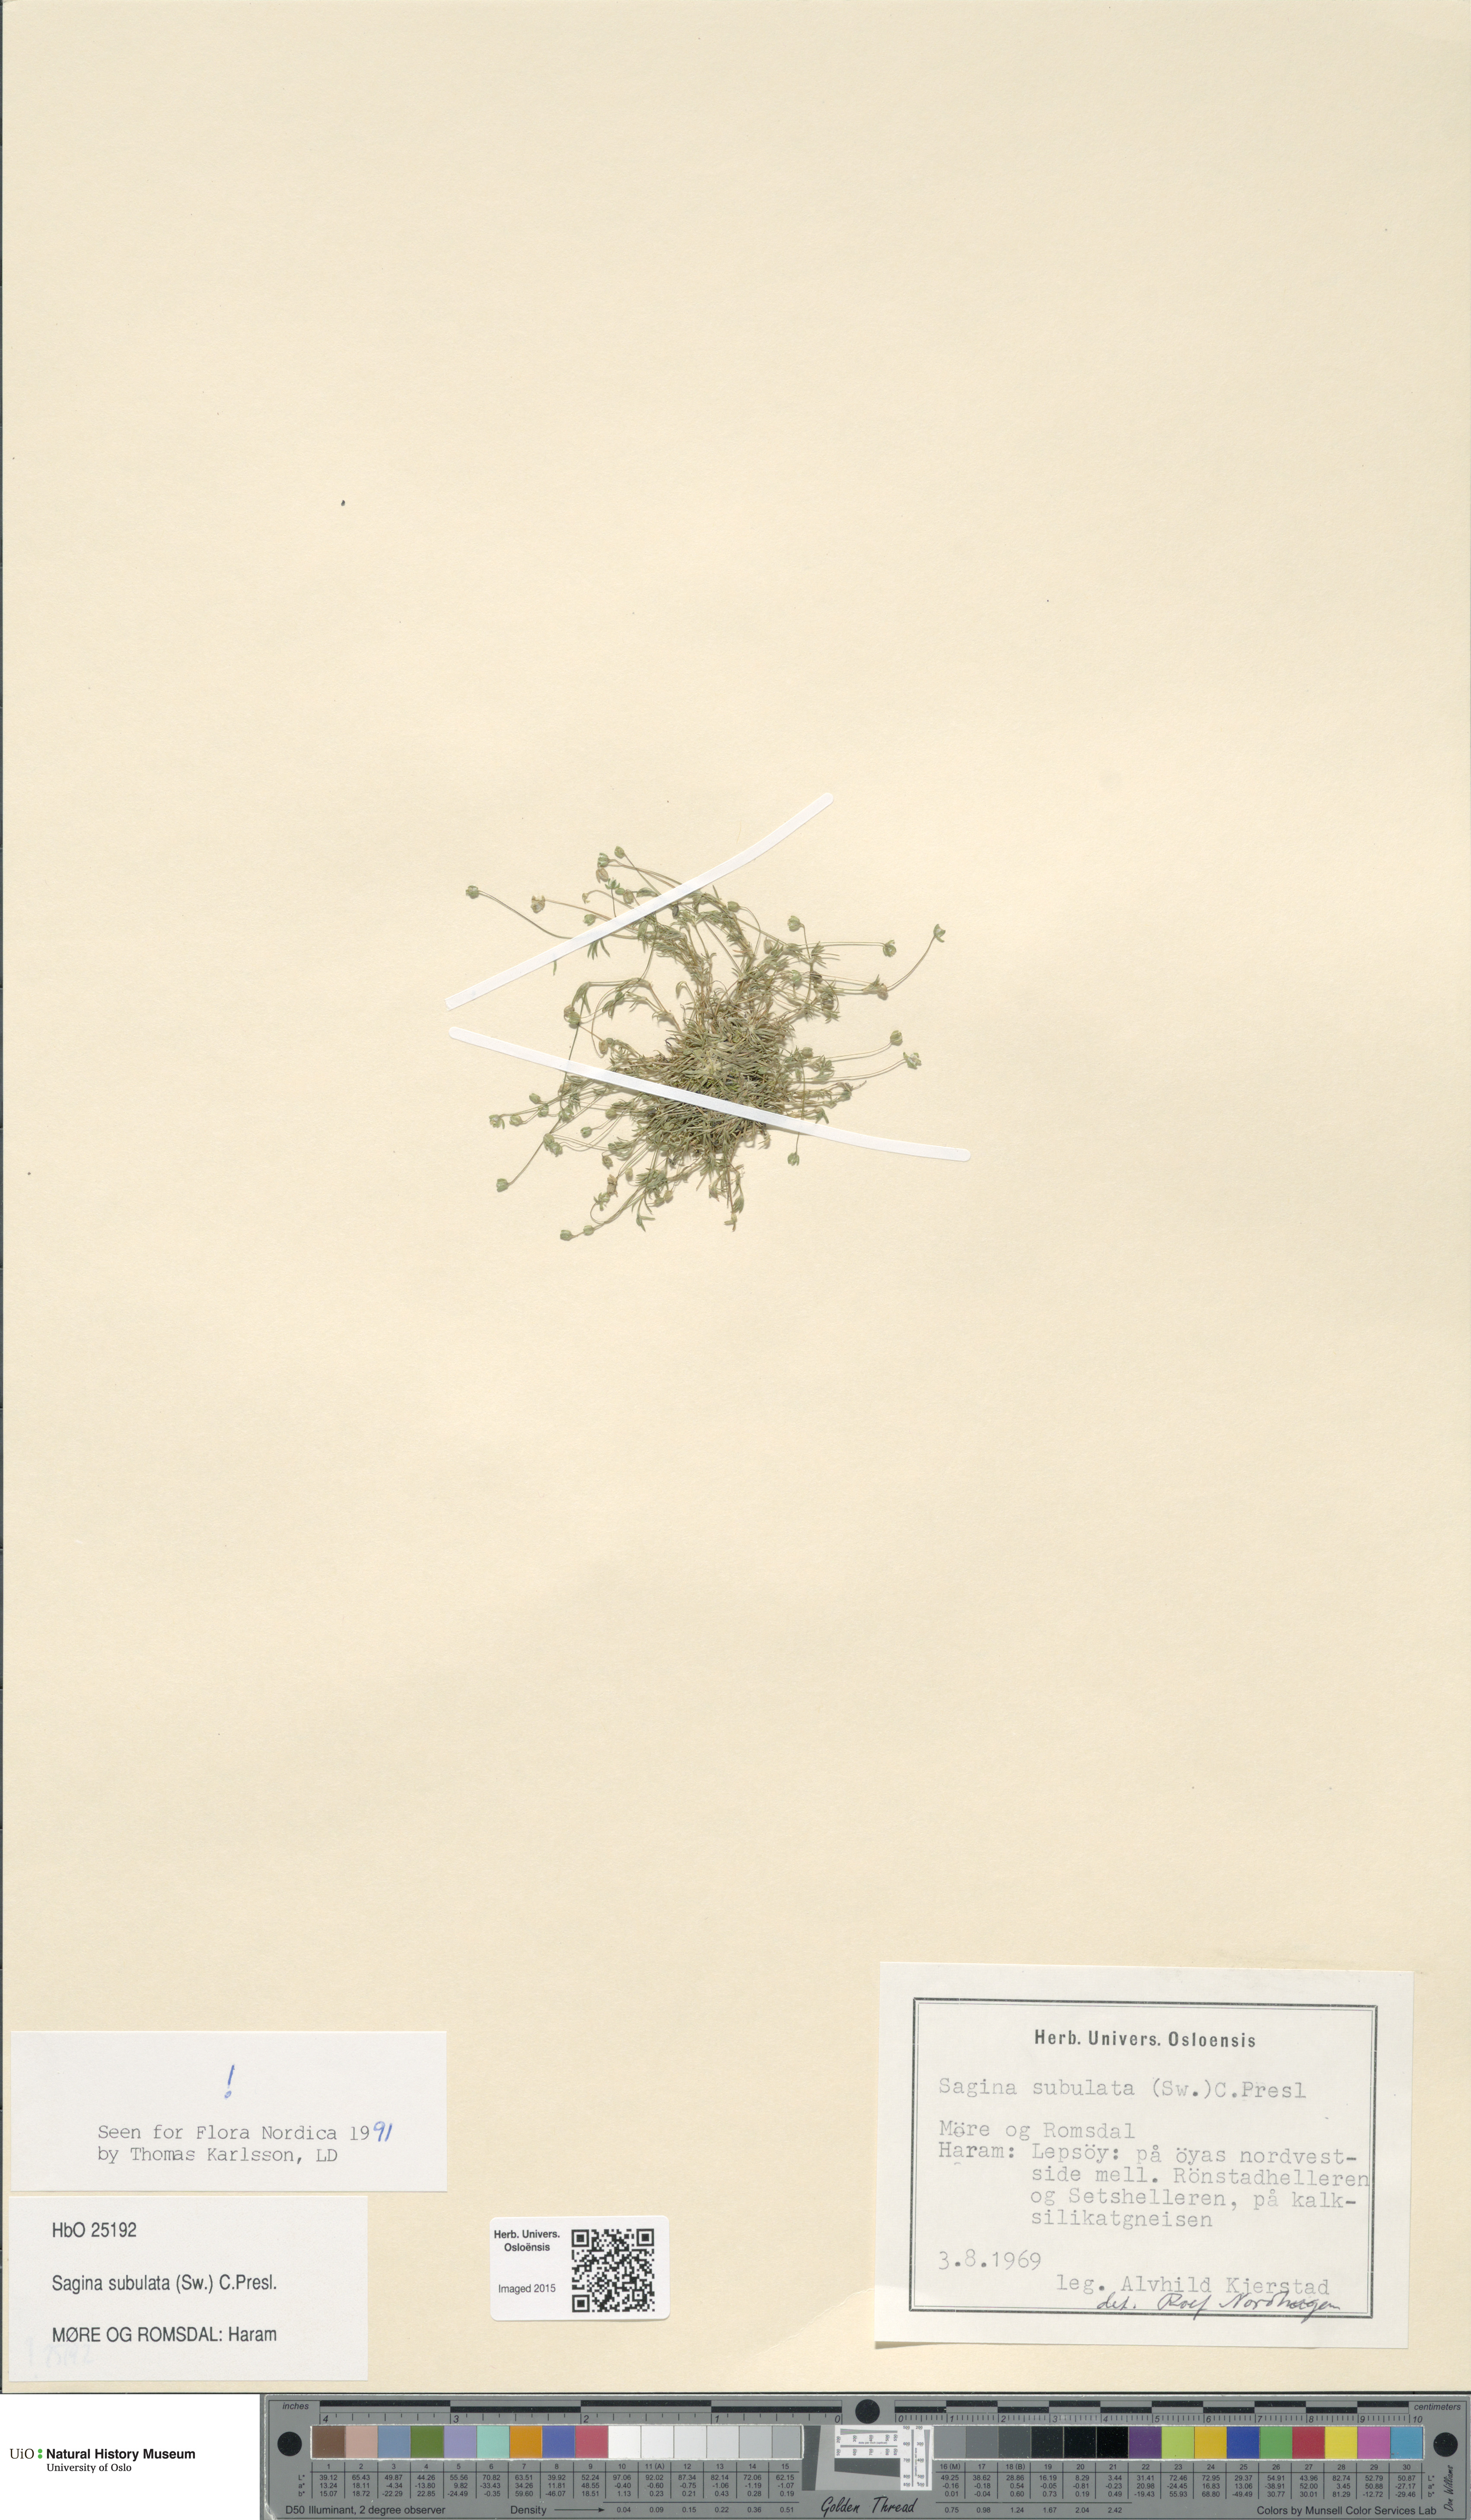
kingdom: Plantae
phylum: Tracheophyta
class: Magnoliopsida
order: Caryophyllales
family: Caryophyllaceae
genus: Sagina
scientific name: Sagina alexandrae
